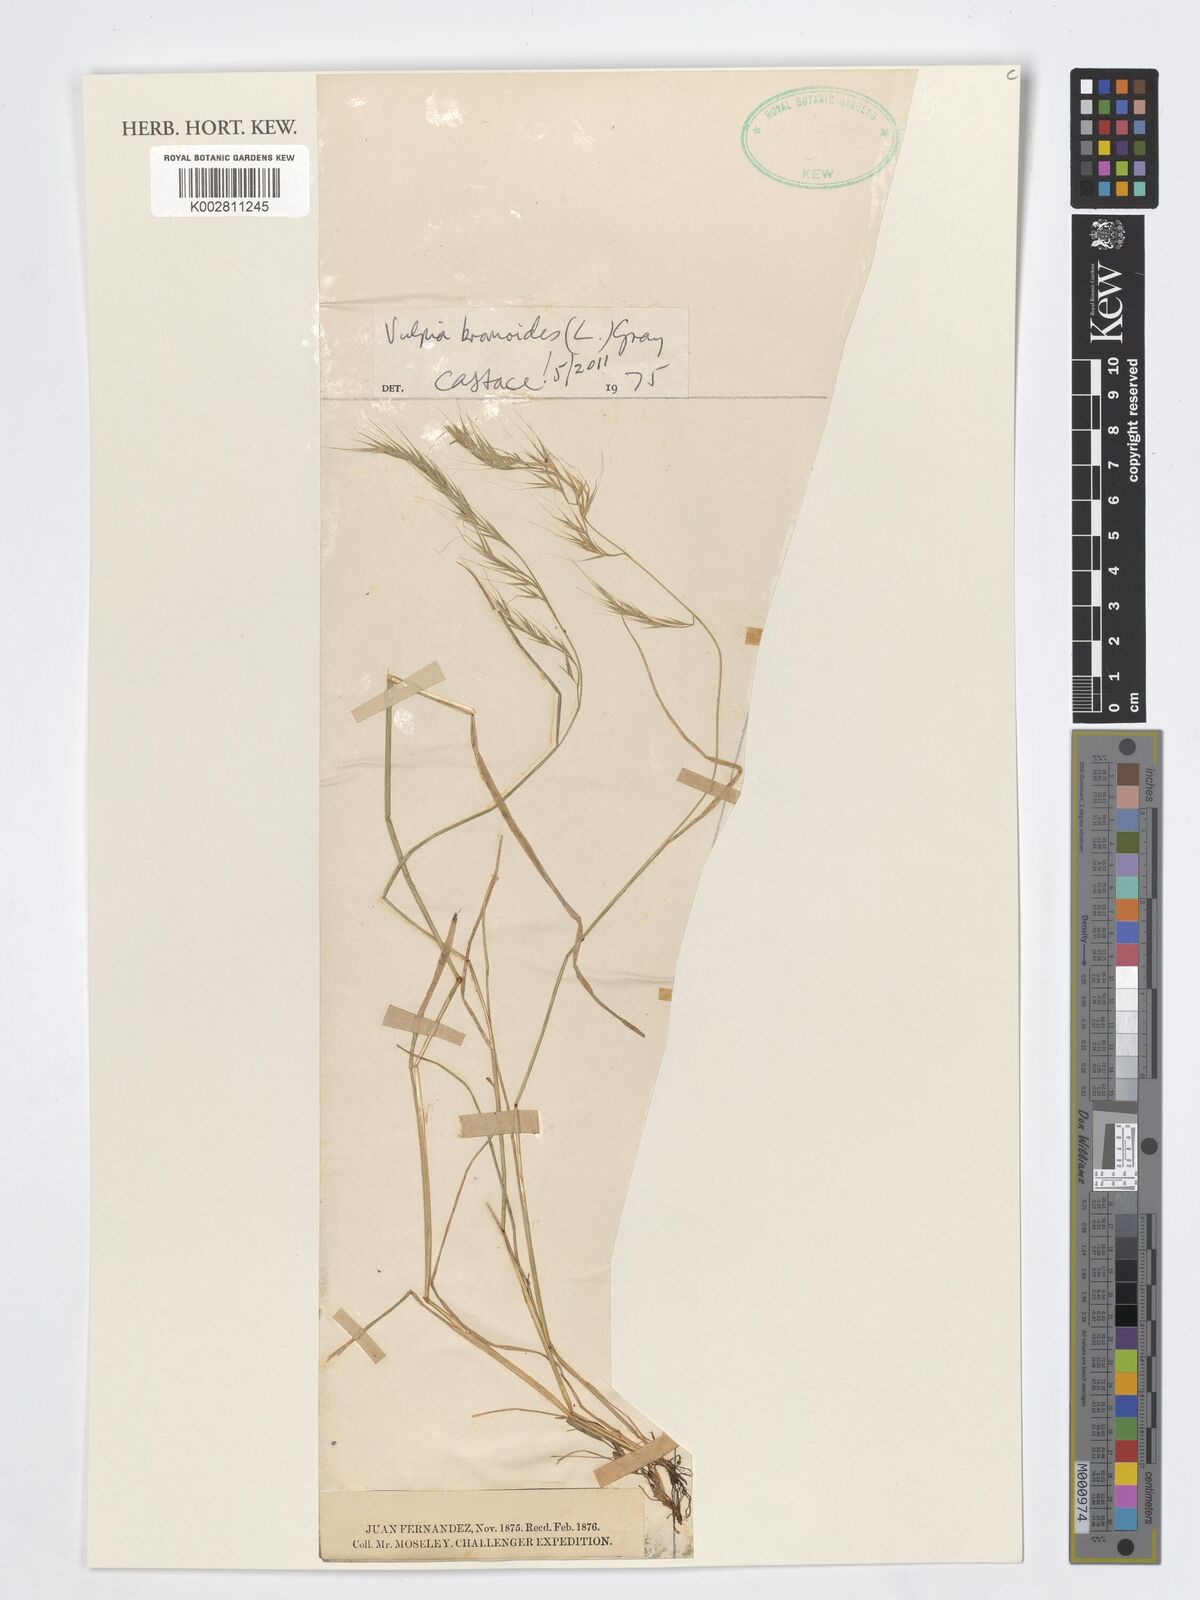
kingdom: Plantae
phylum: Tracheophyta
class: Liliopsida
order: Poales
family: Poaceae
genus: Festuca
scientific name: Festuca bromoides
